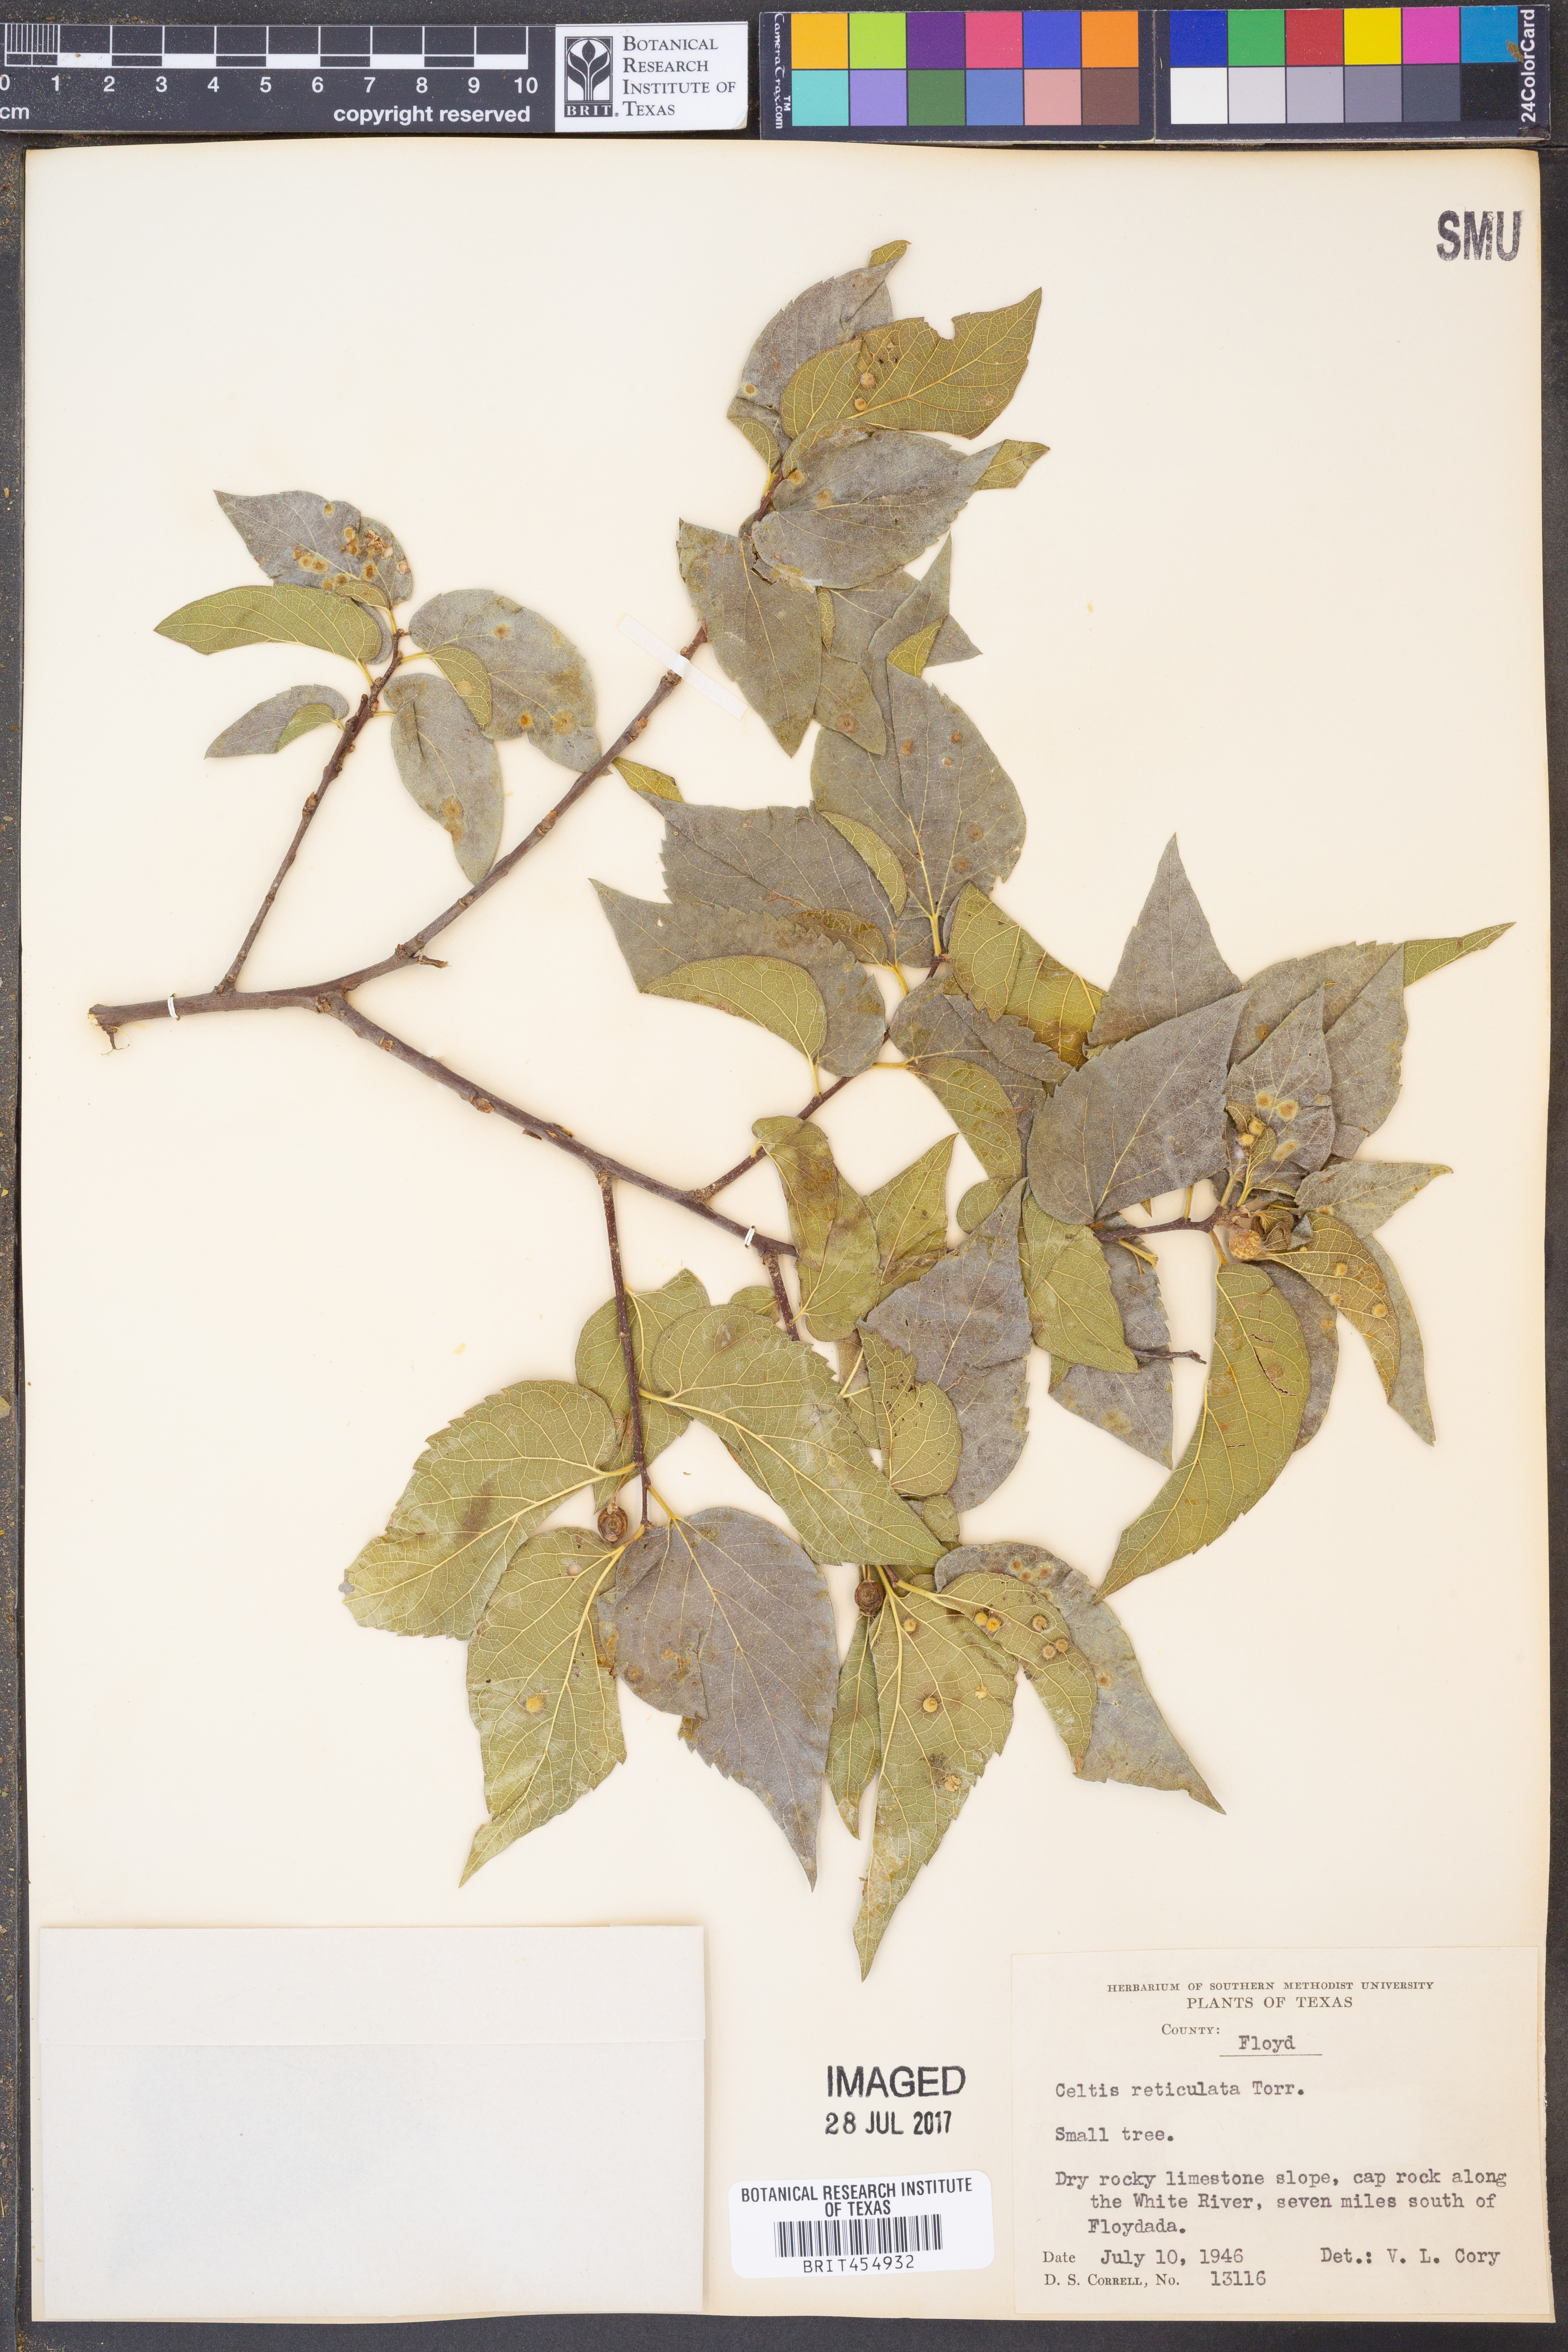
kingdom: Plantae
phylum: Tracheophyta
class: Magnoliopsida
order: Rosales
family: Cannabaceae
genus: Celtis
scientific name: Celtis reticulata
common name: Netleaf hackberry
